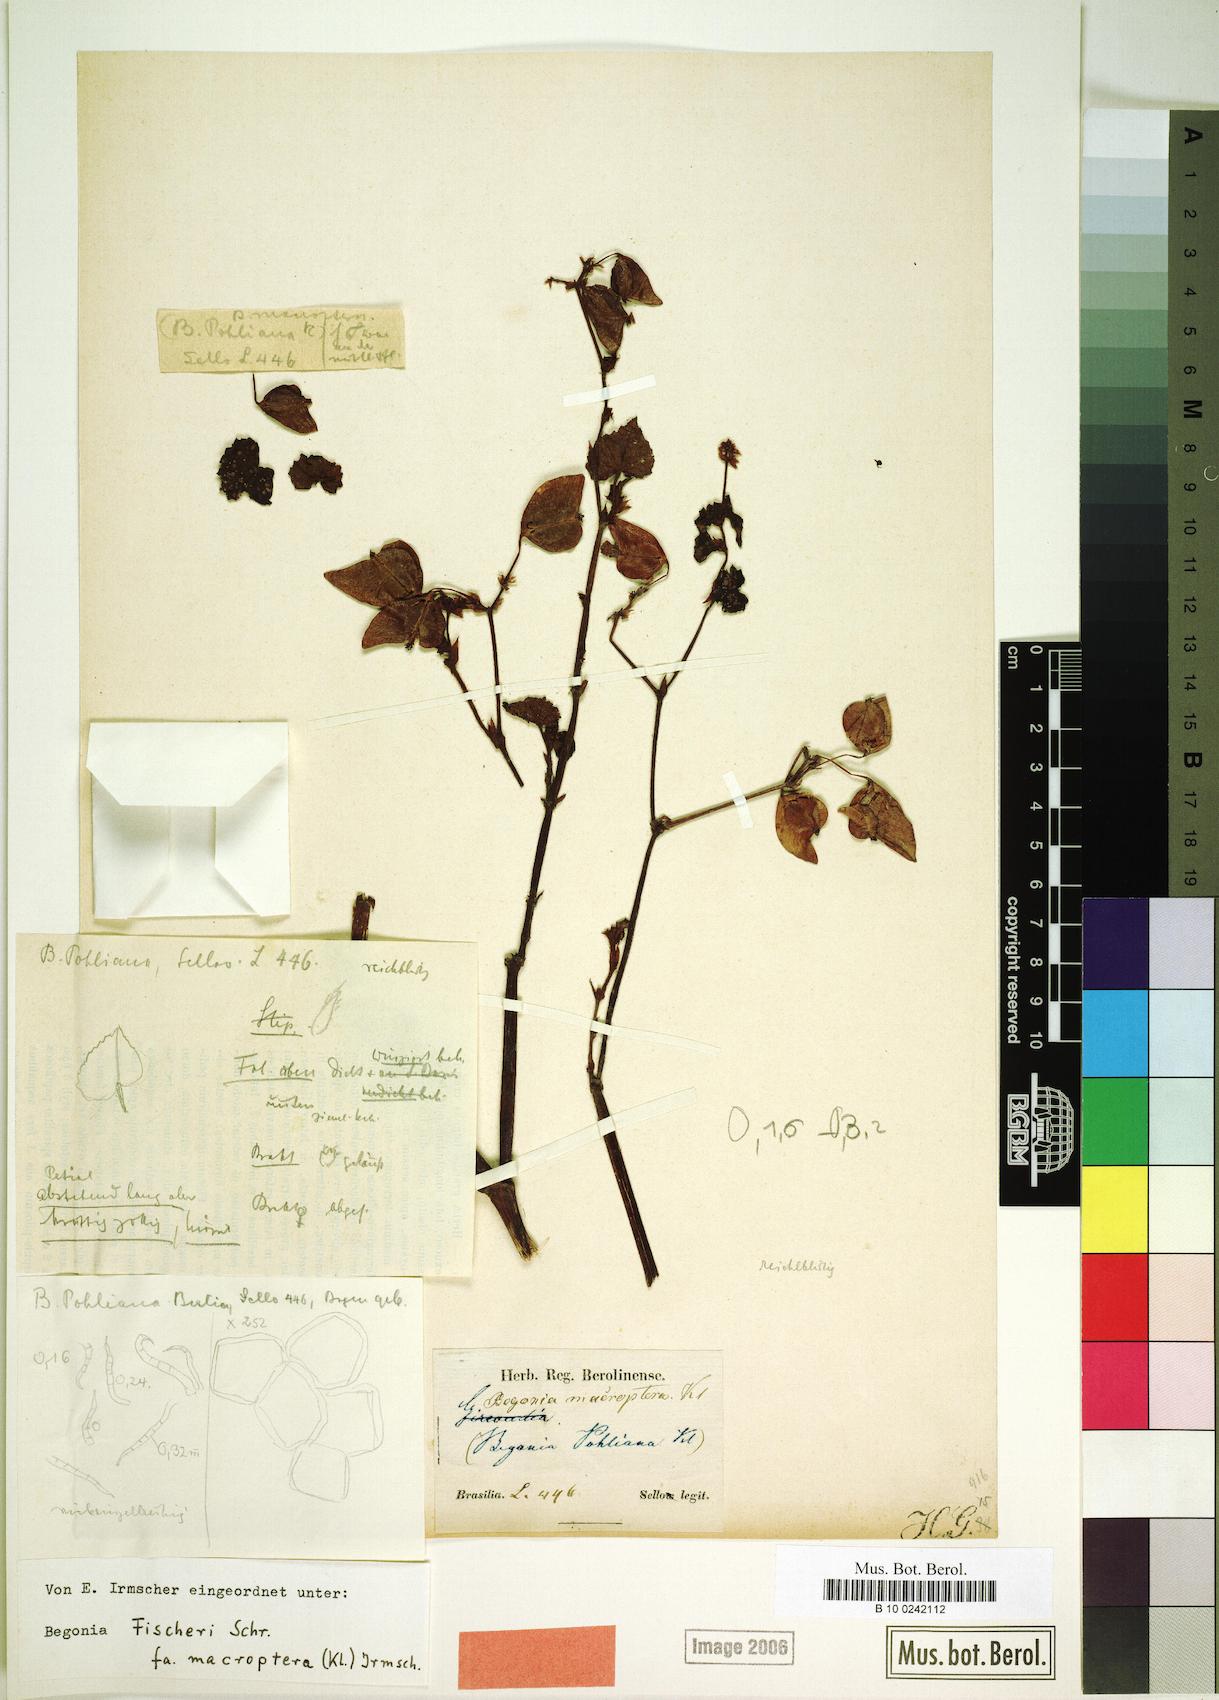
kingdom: Plantae
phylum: Tracheophyta
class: Magnoliopsida
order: Cucurbitales
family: Begoniaceae
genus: Begonia
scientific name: Begonia fischeri
